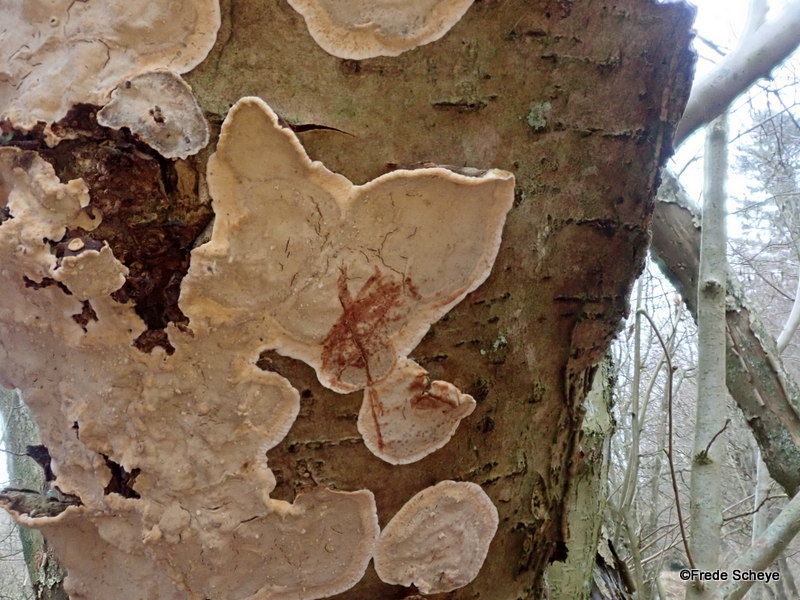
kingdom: Fungi
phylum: Basidiomycota
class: Agaricomycetes
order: Russulales
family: Stereaceae
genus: Stereum
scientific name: Stereum rugosum
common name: rynket lædersvamp
